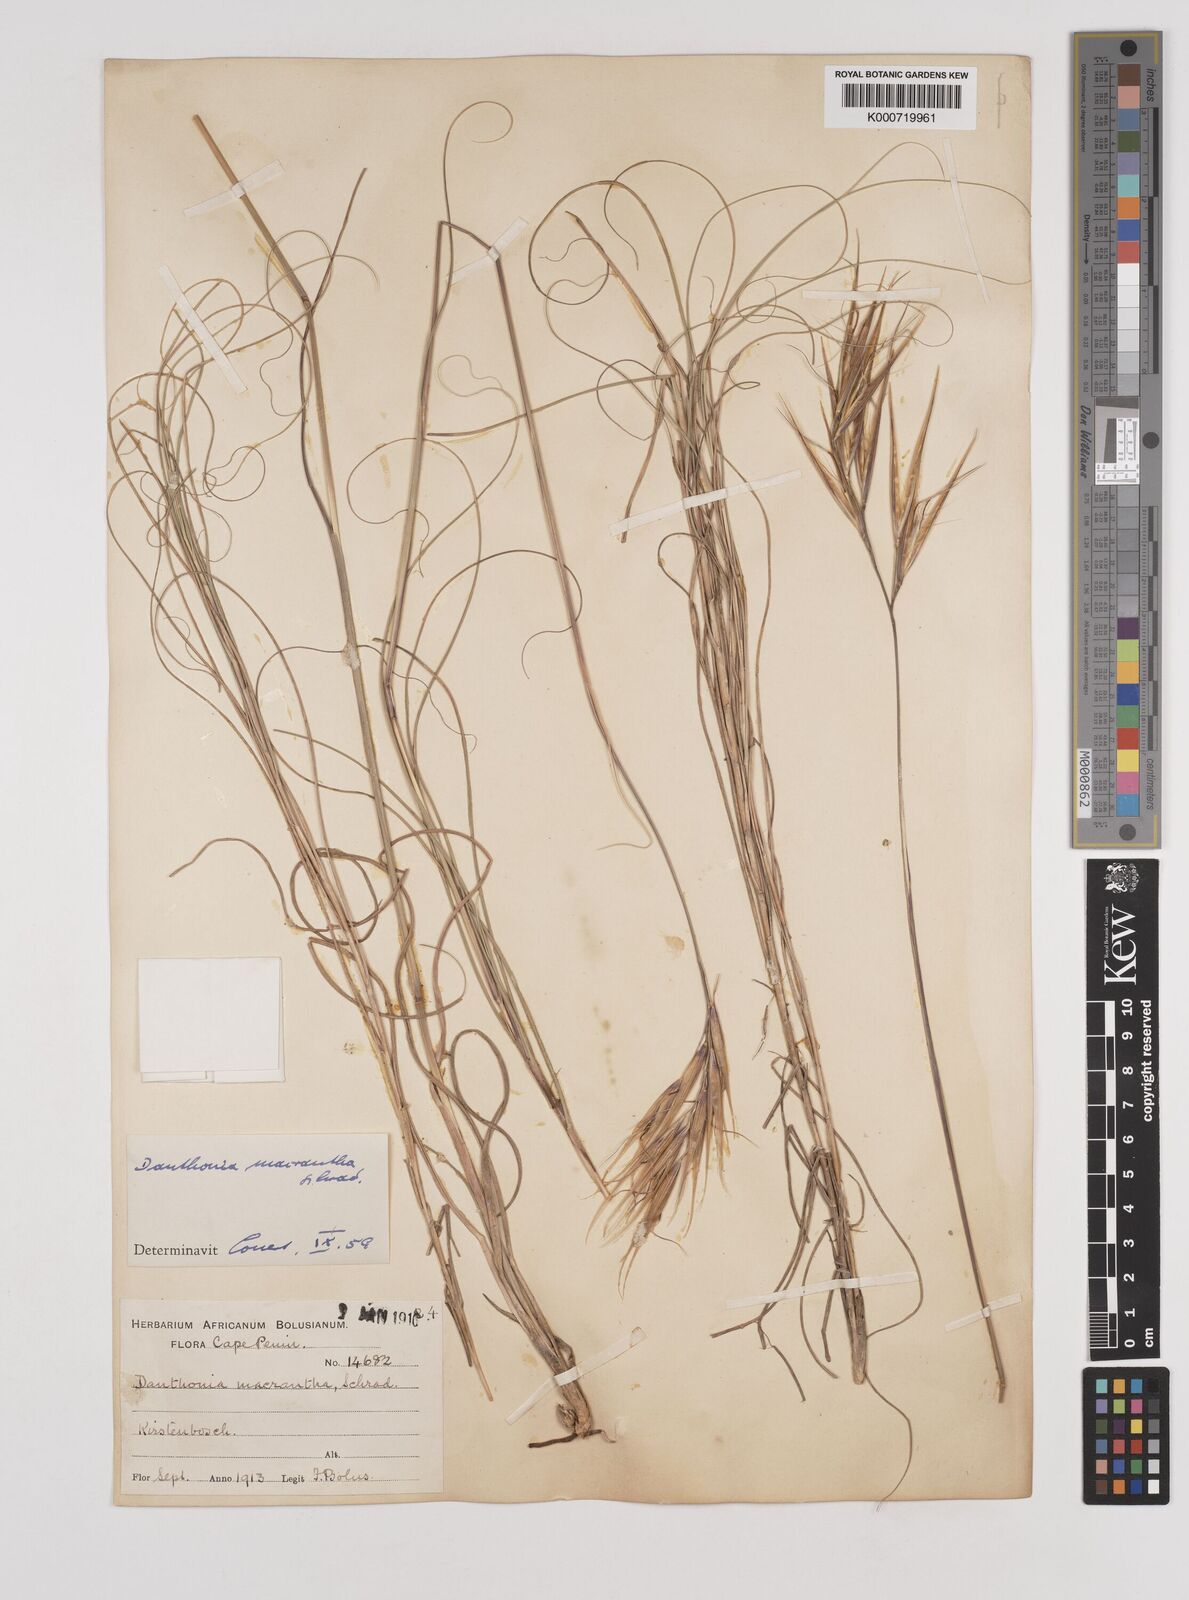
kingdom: Plantae
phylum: Tracheophyta
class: Liliopsida
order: Poales
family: Poaceae
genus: Pseudopentameris
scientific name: Pseudopentameris macrantha
